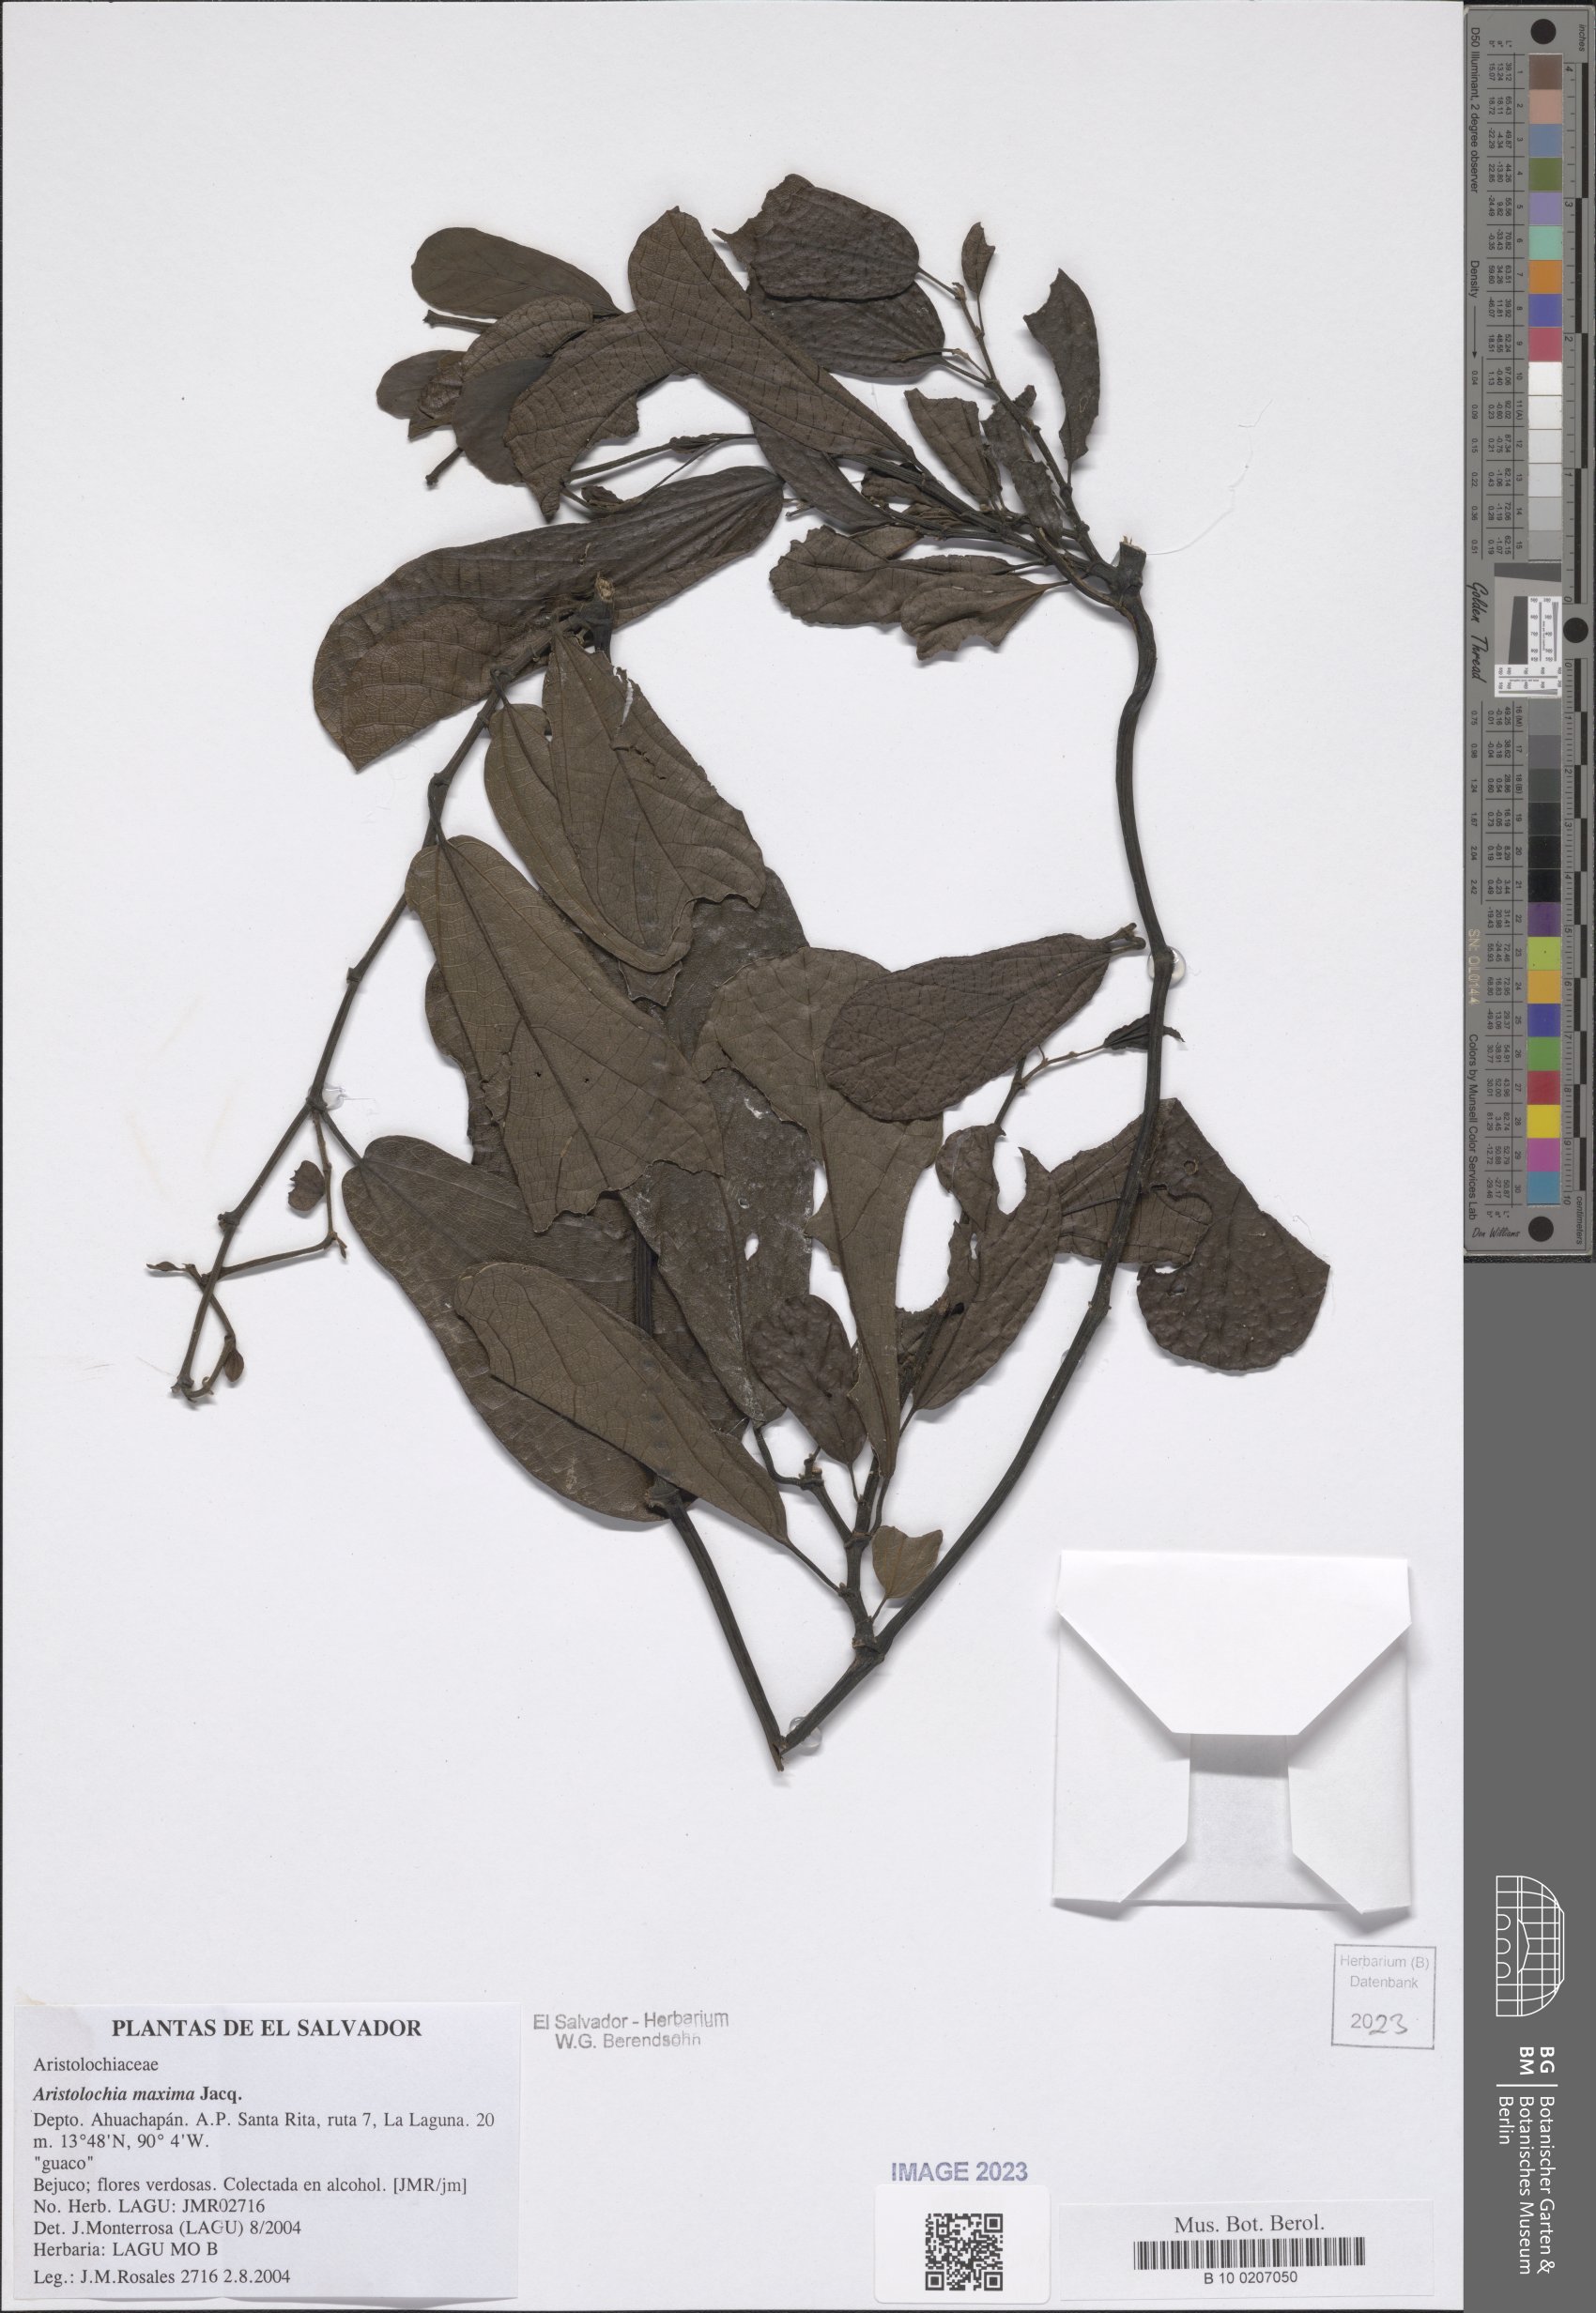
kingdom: Plantae
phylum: Tracheophyta
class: Magnoliopsida
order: Piperales
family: Aristolochiaceae
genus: Aristolochia
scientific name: Aristolochia maxima
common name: Florida dutchman's pipe
